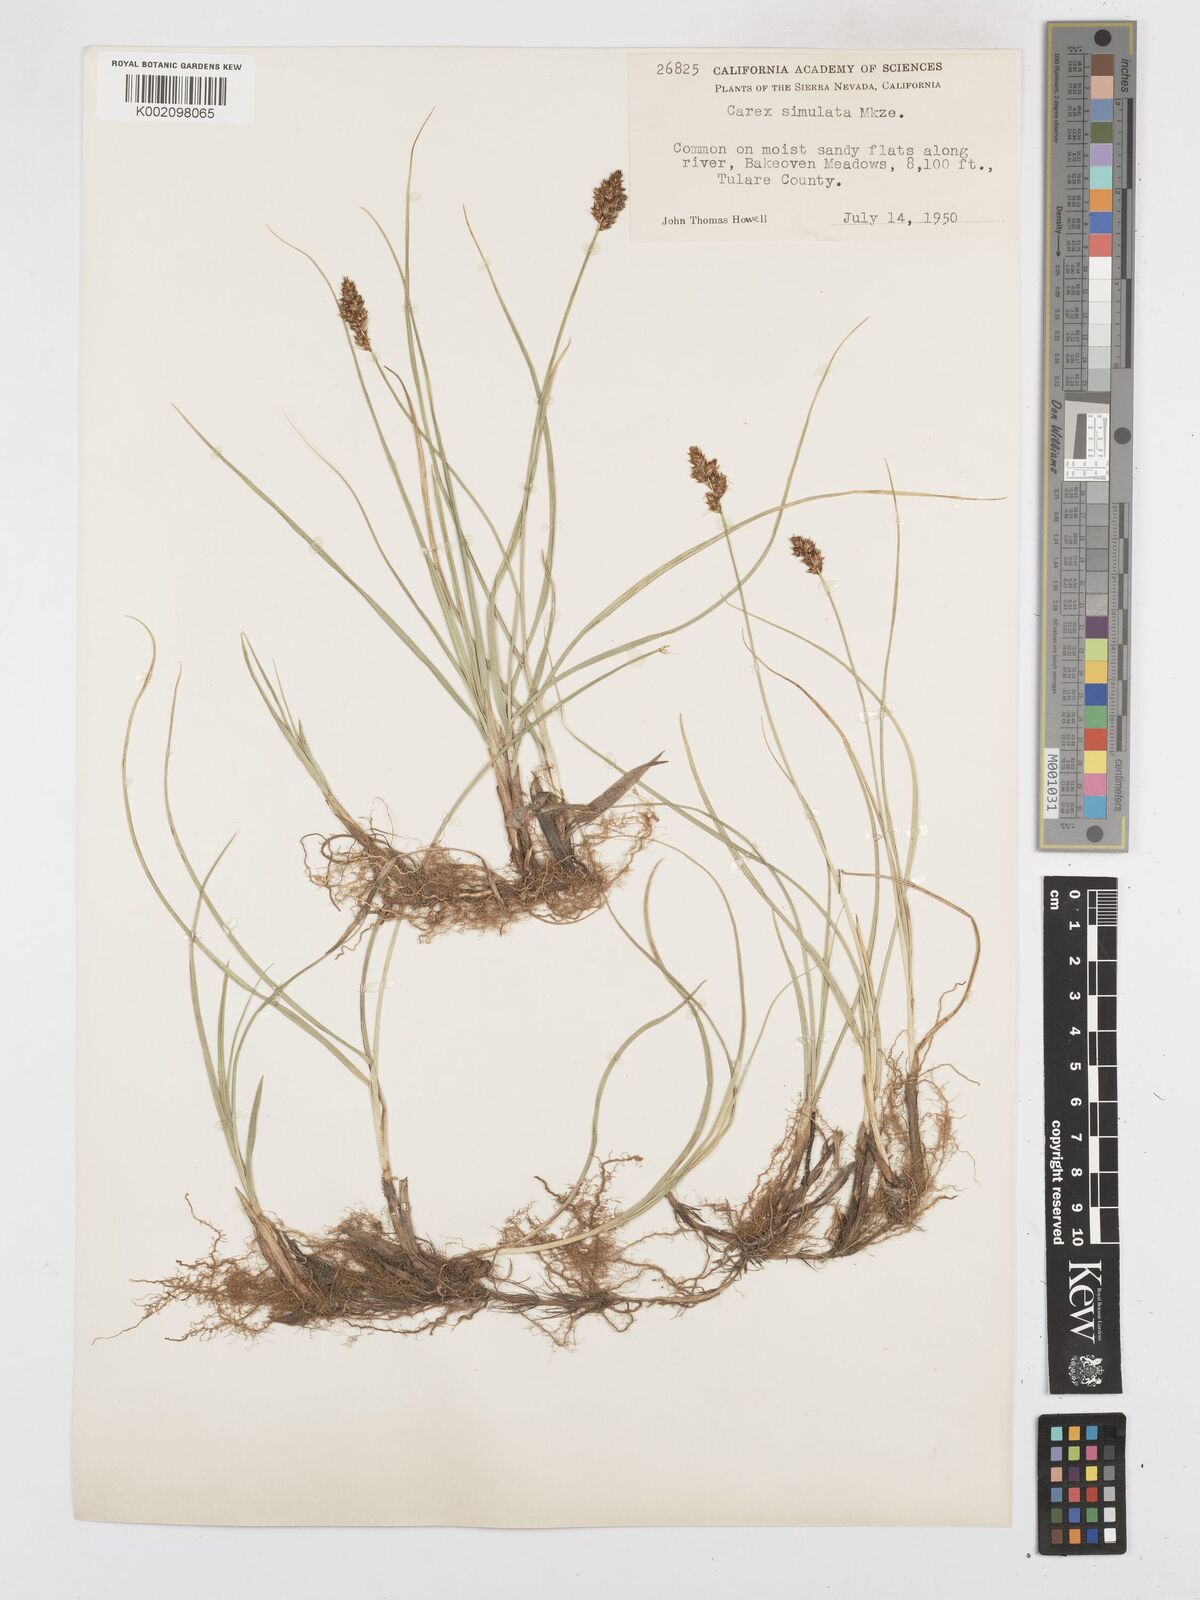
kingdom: Plantae
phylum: Tracheophyta
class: Liliopsida
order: Poales
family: Cyperaceae
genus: Carex
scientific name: Carex simulata
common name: Analogue sedge
